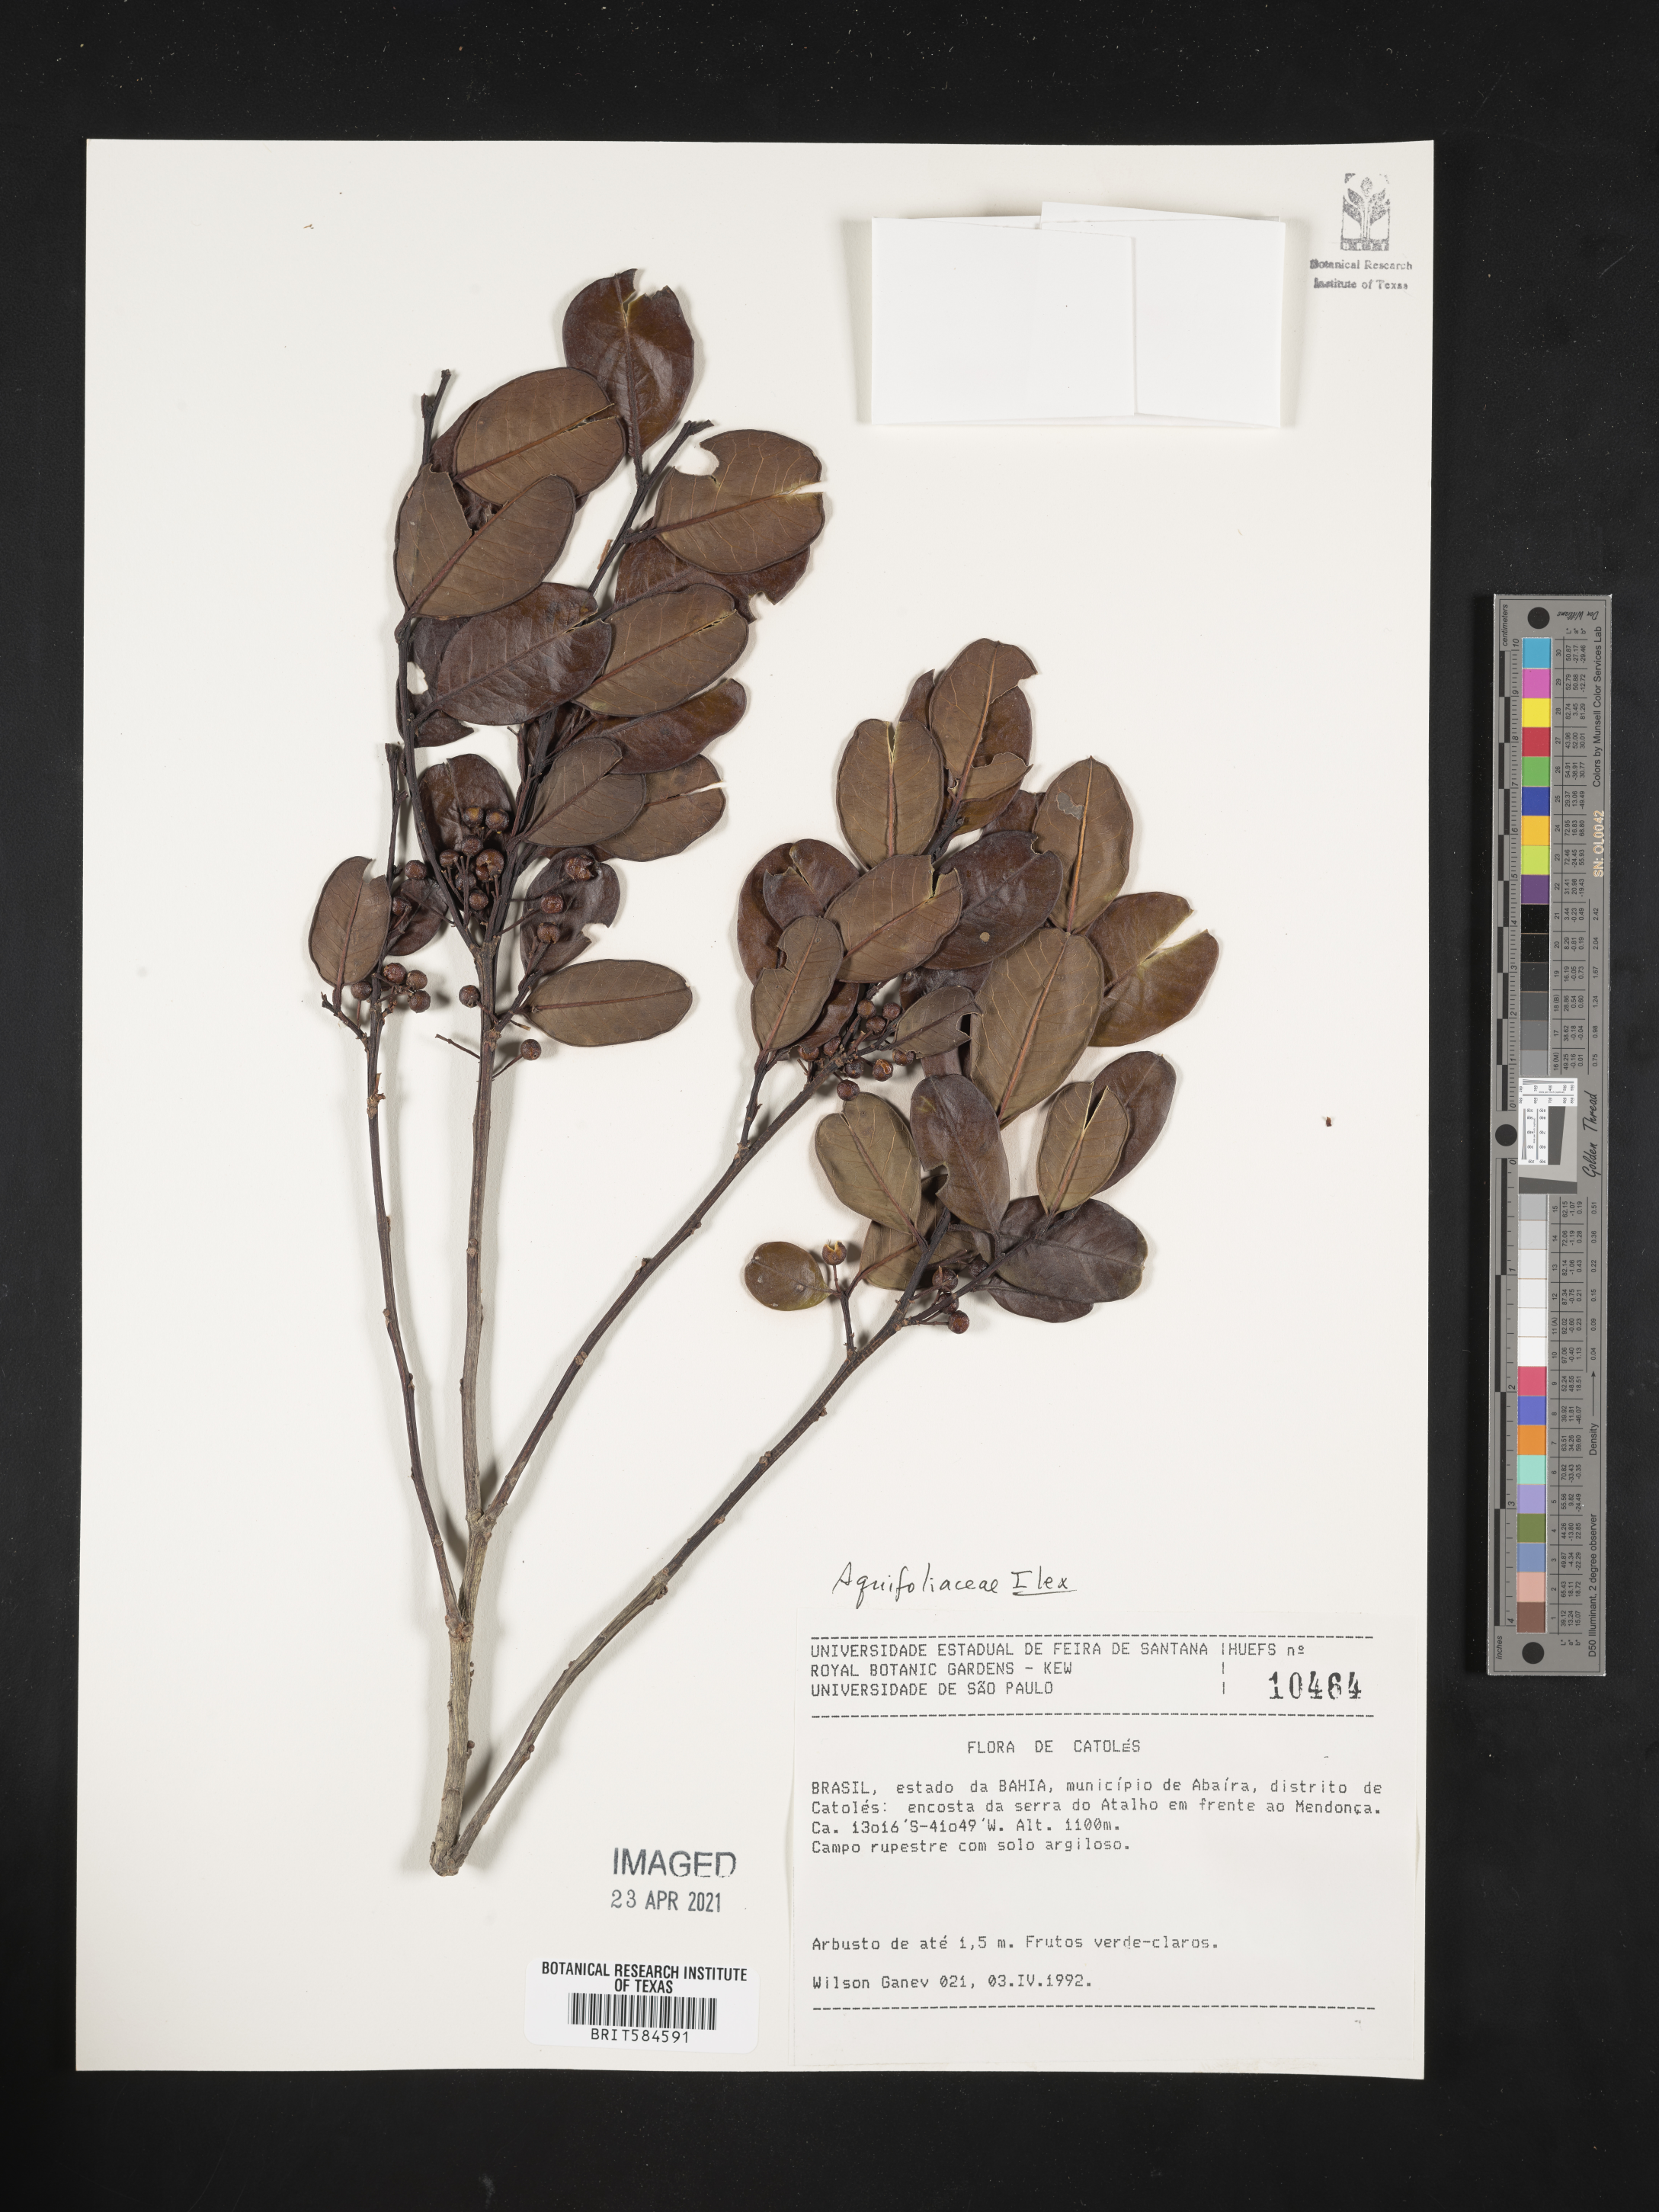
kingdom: Plantae
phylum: Tracheophyta
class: Magnoliopsida
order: Aquifoliales
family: Aquifoliaceae
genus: Ilex
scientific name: Ilex
